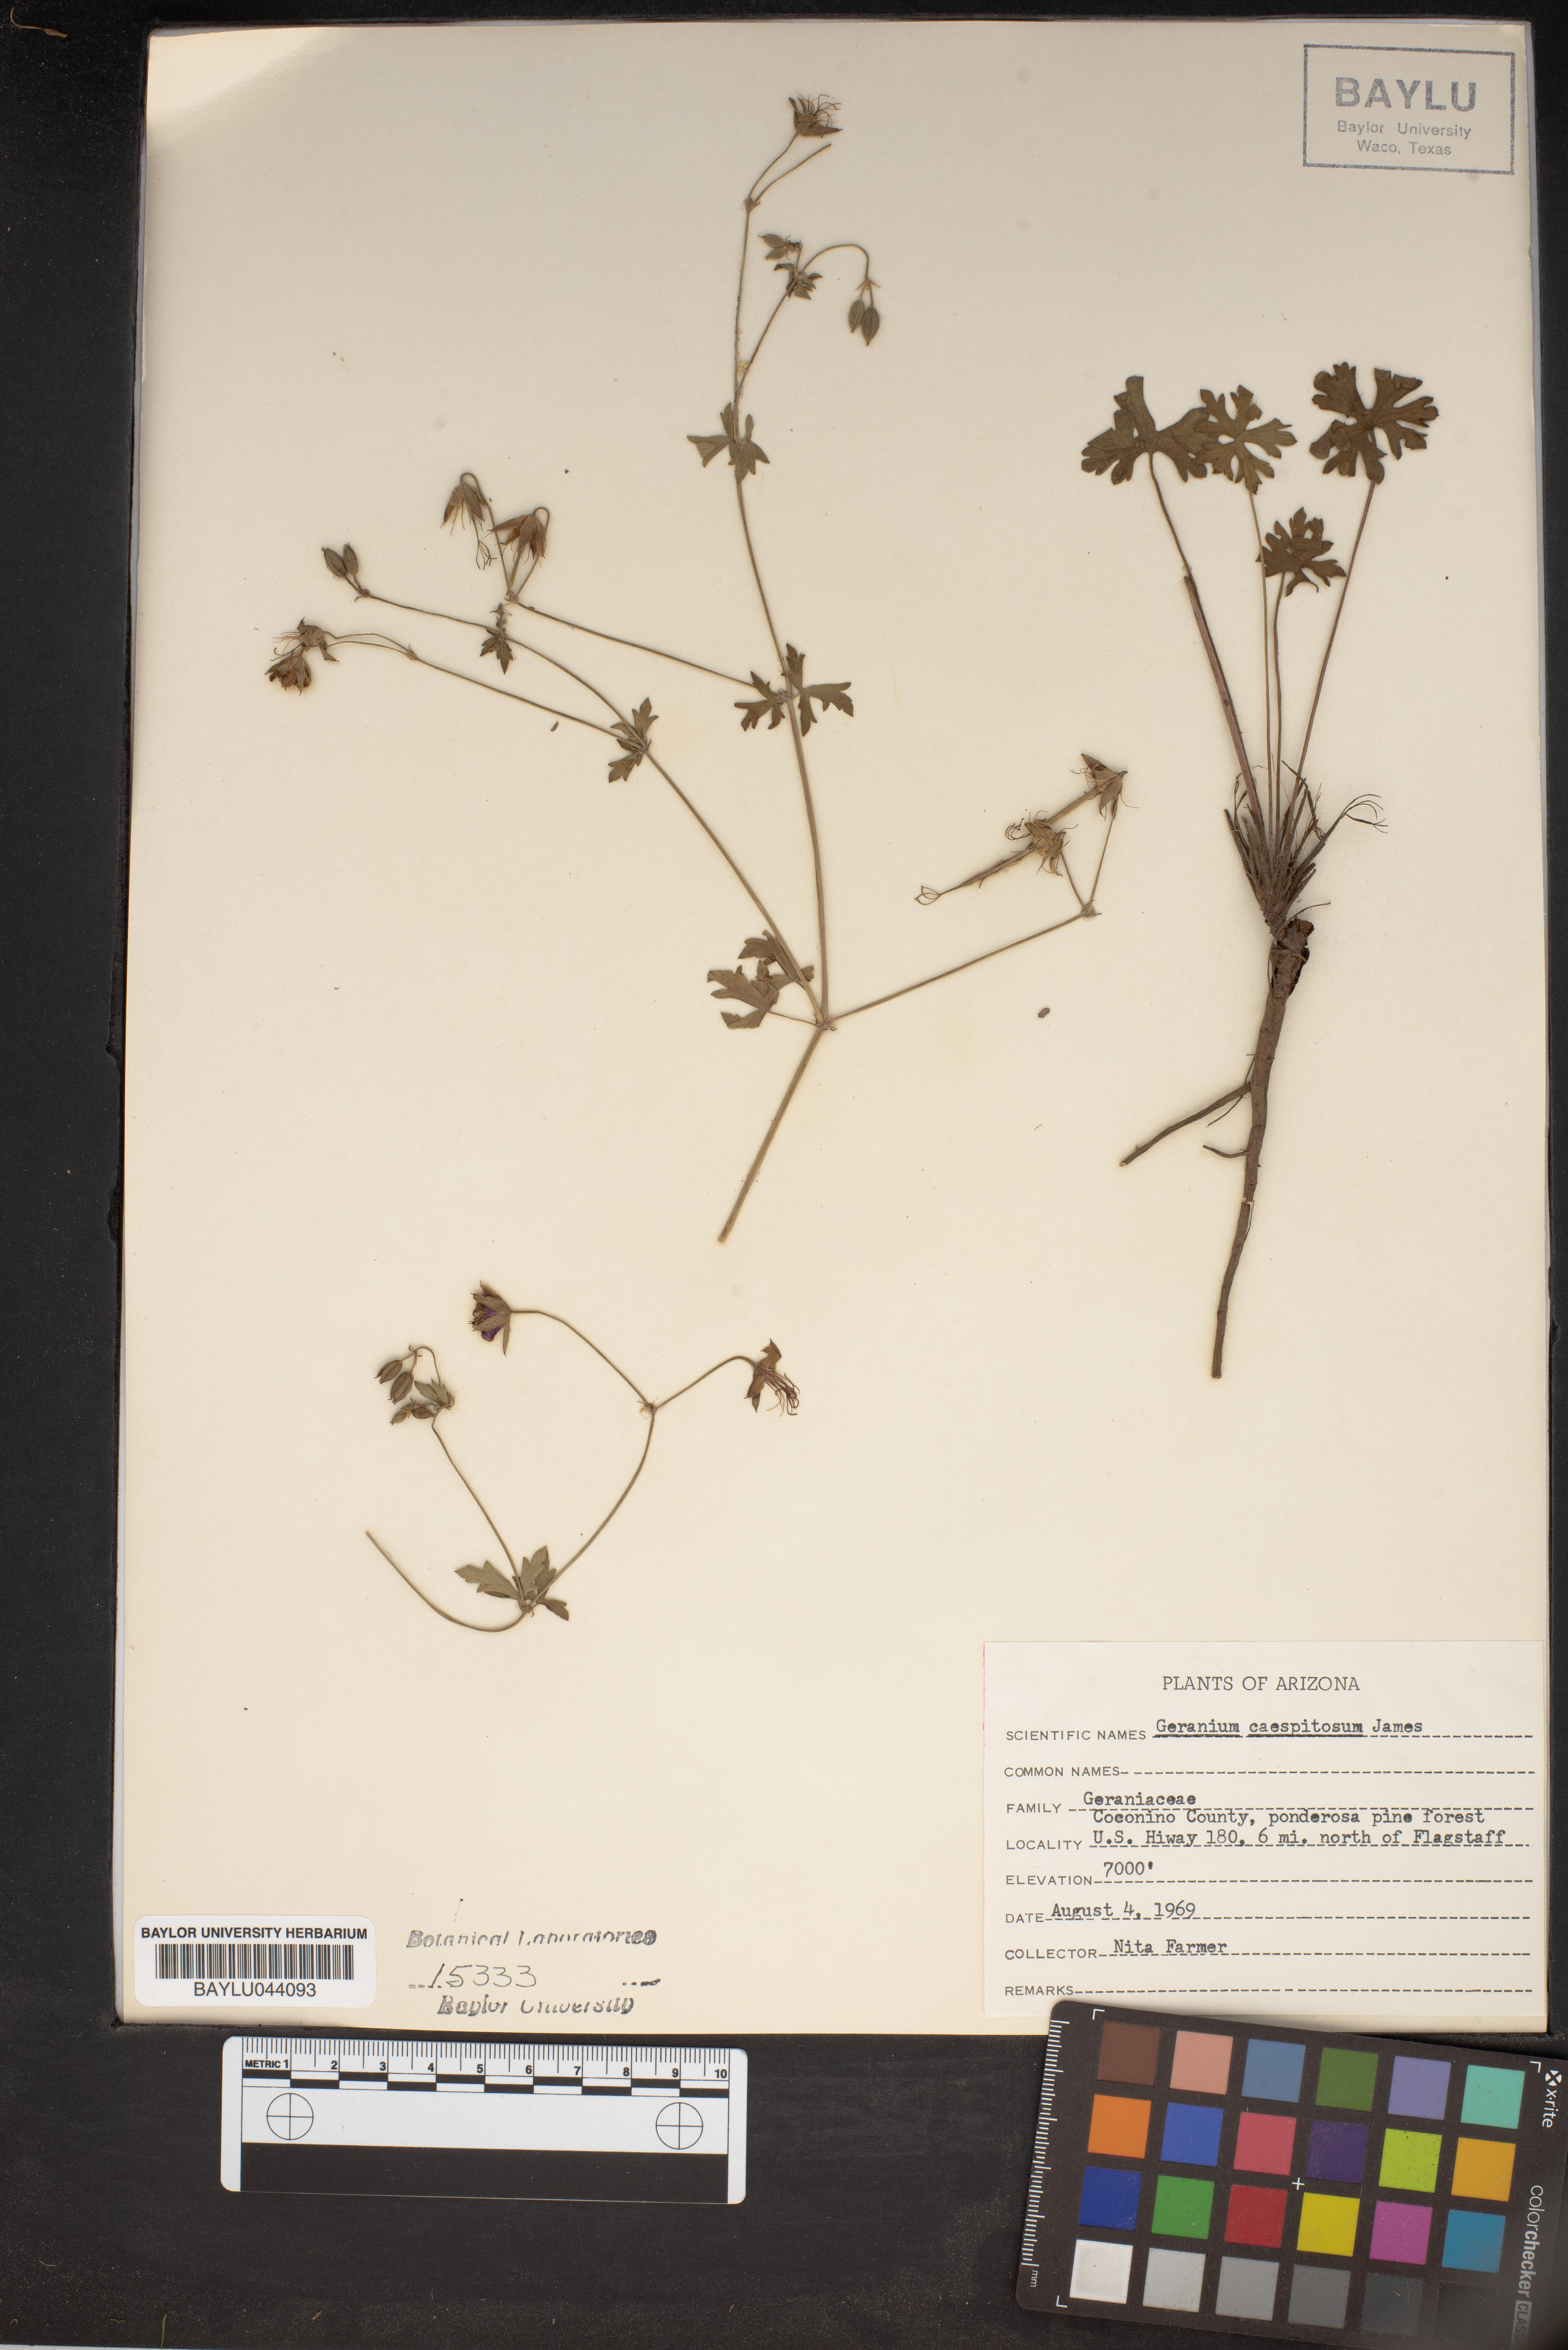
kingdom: Plantae
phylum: Tracheophyta
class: Magnoliopsida
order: Geraniales
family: Geraniaceae
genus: Geranium
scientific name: Geranium caespitosum
